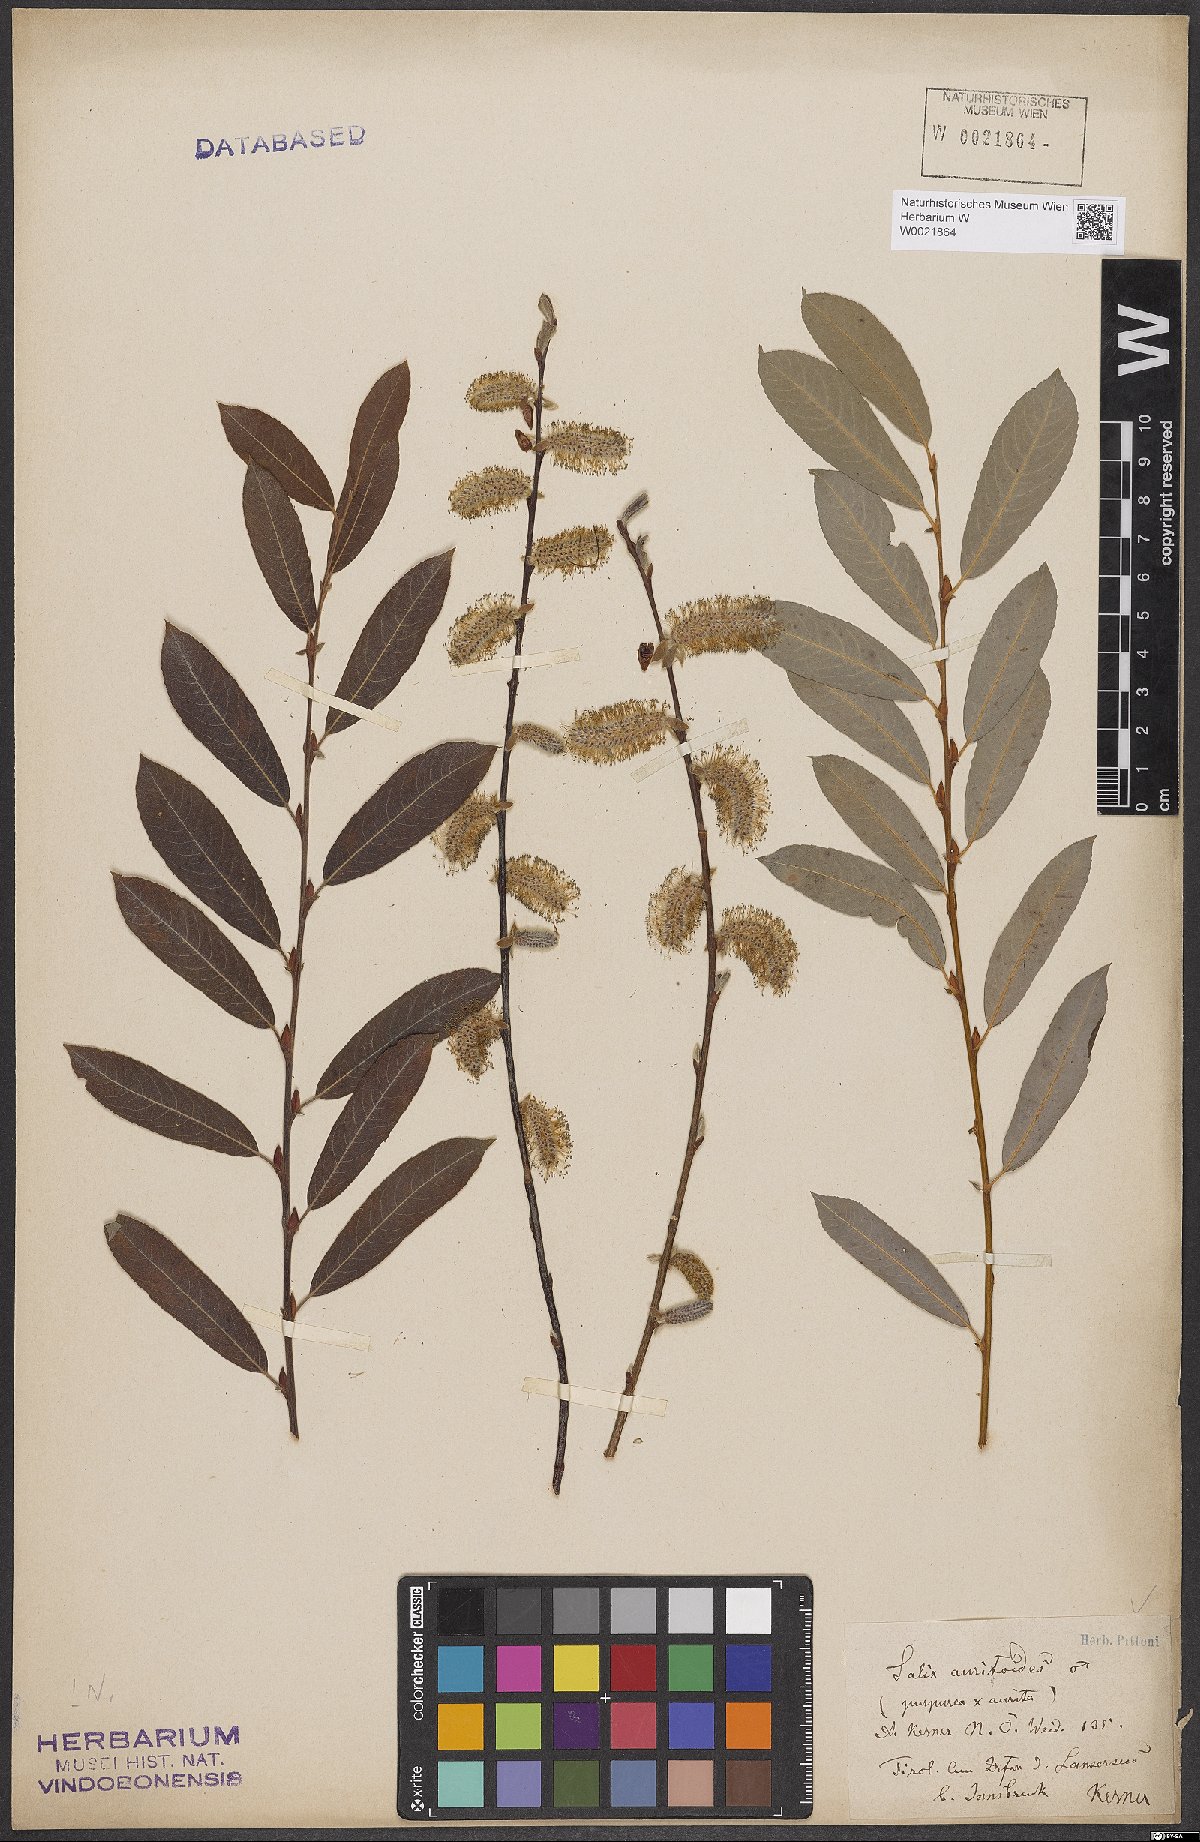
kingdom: Plantae
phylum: Tracheophyta
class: Magnoliopsida
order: Malpighiales
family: Salicaceae
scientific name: Salicaceae
